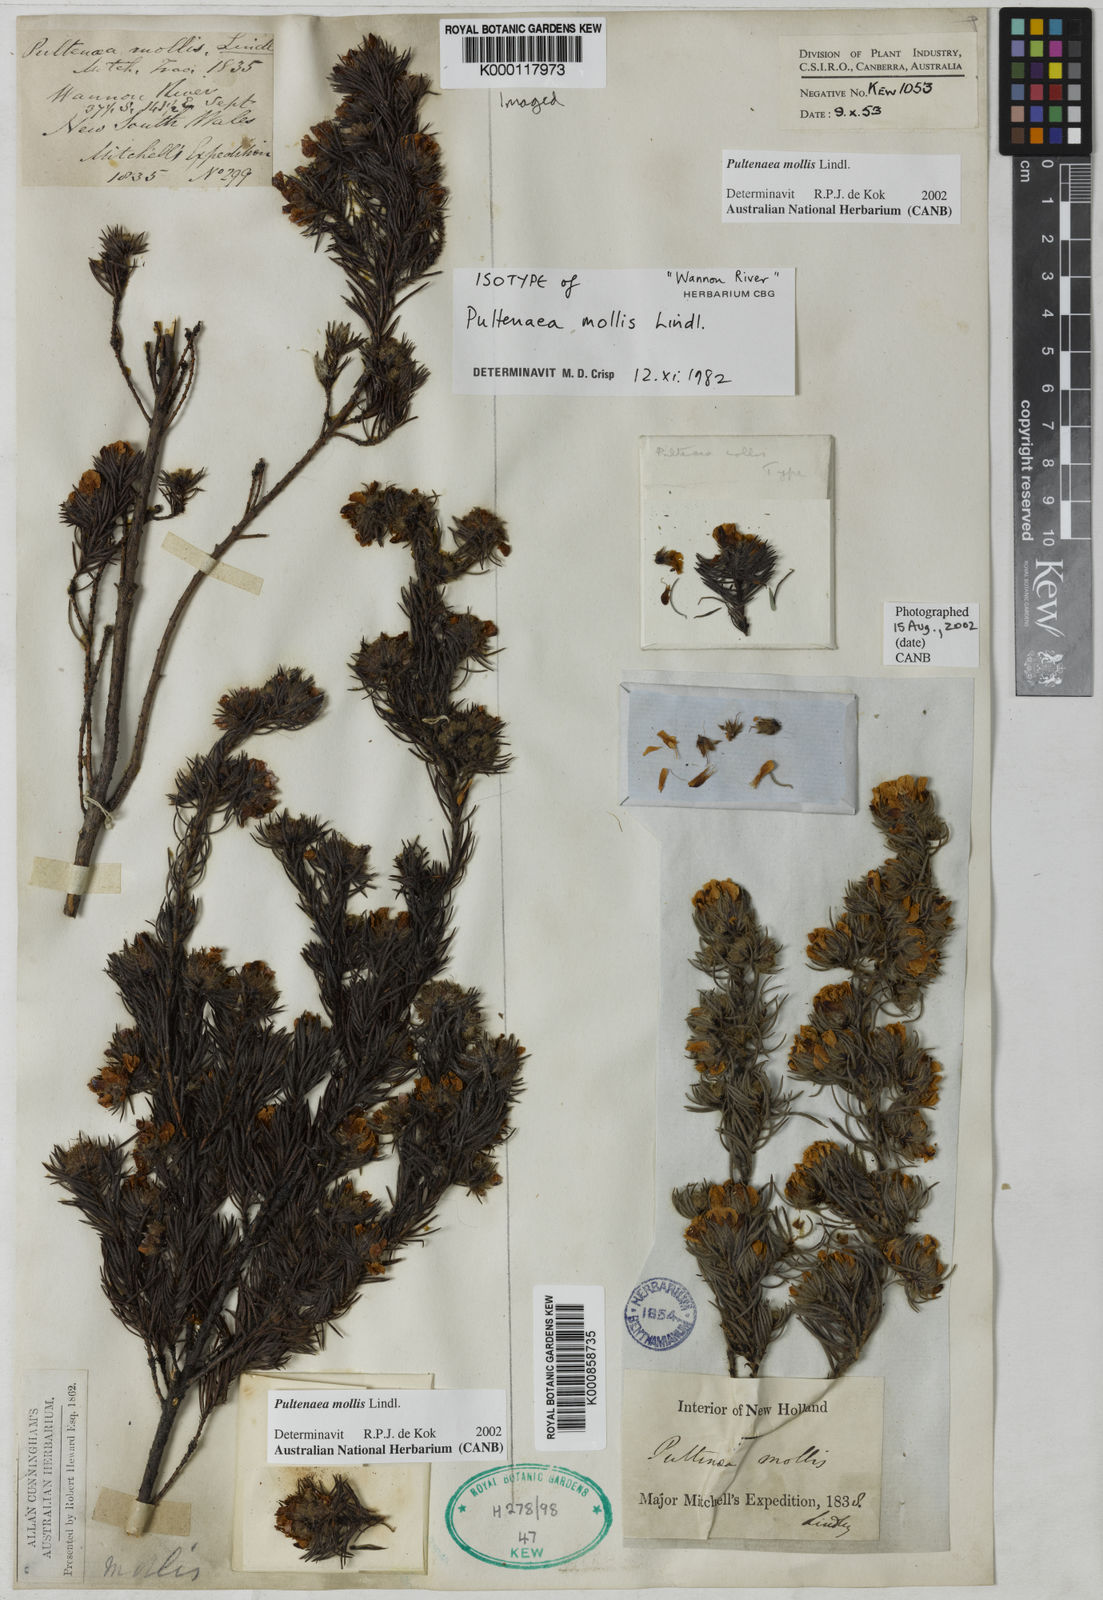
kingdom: Plantae
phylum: Tracheophyta
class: Magnoliopsida
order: Fabales
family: Fabaceae
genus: Pultenaea
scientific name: Pultenaea mollis
